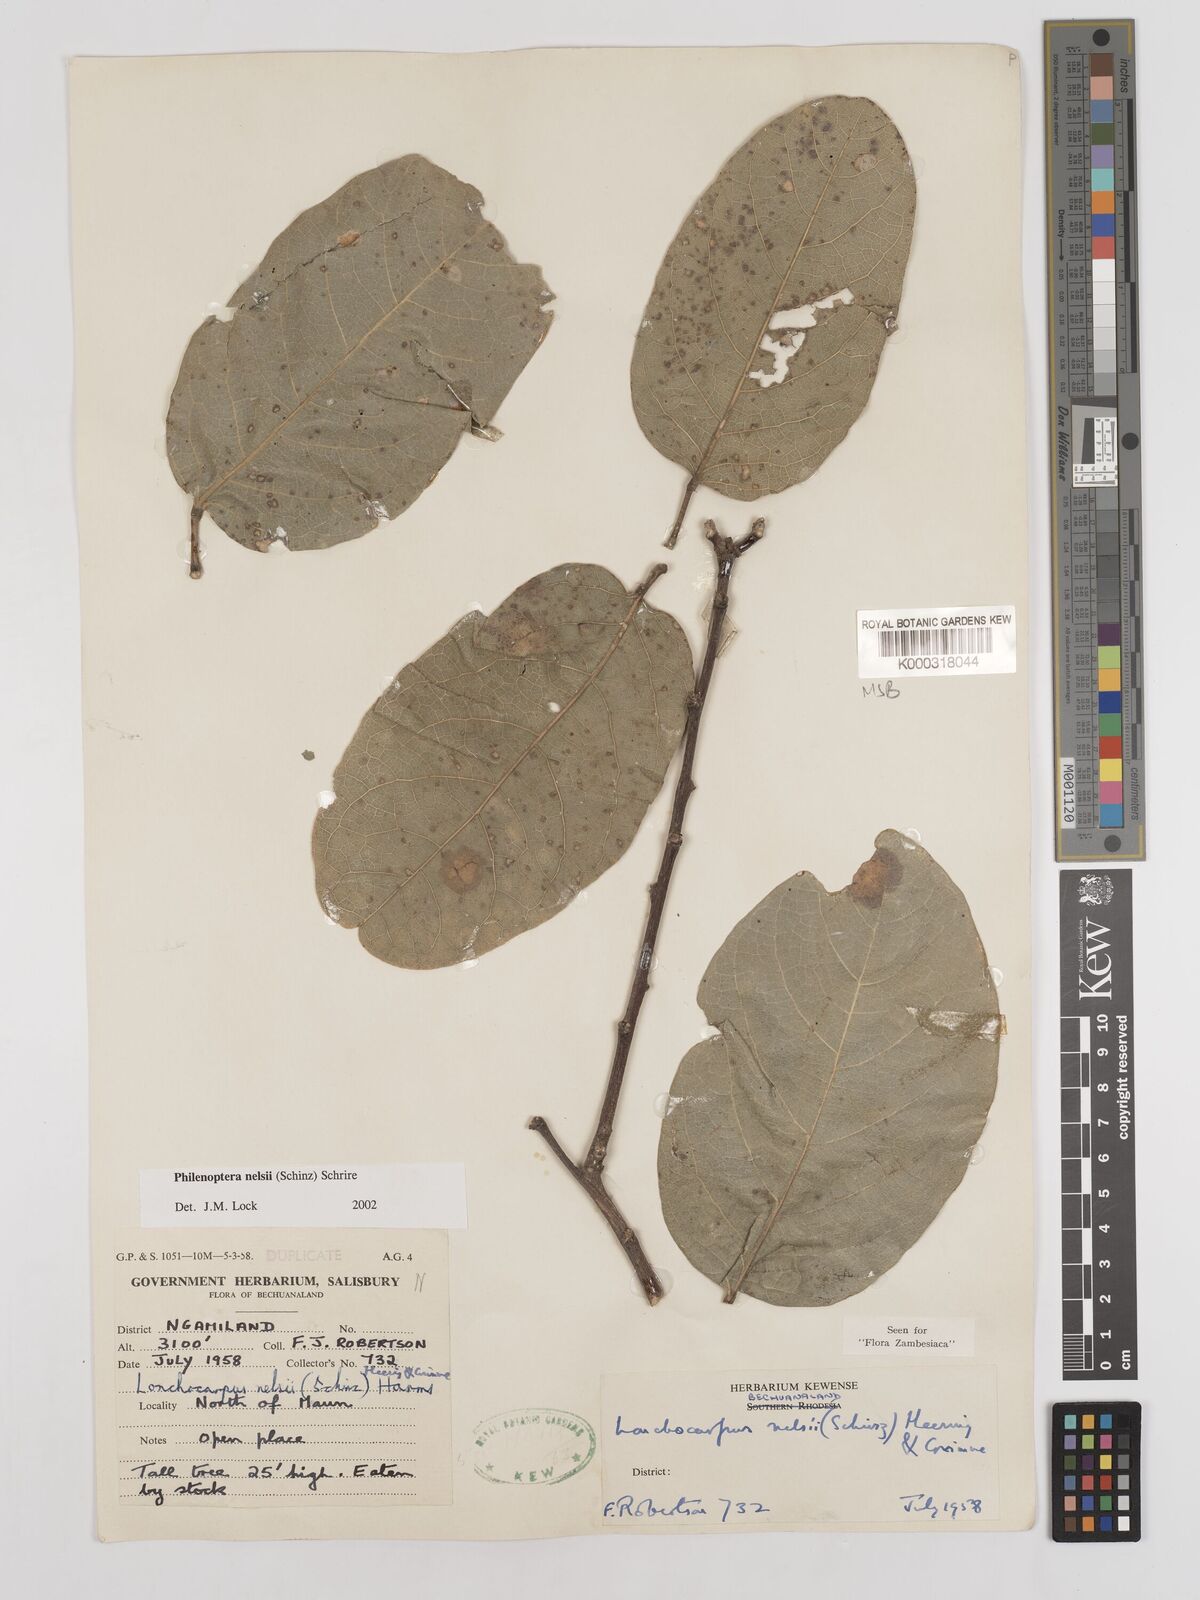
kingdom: Plantae
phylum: Tracheophyta
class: Magnoliopsida
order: Fabales
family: Fabaceae
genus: Philenoptera
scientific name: Philenoptera nelsii
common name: Kalahari apple-leaf
